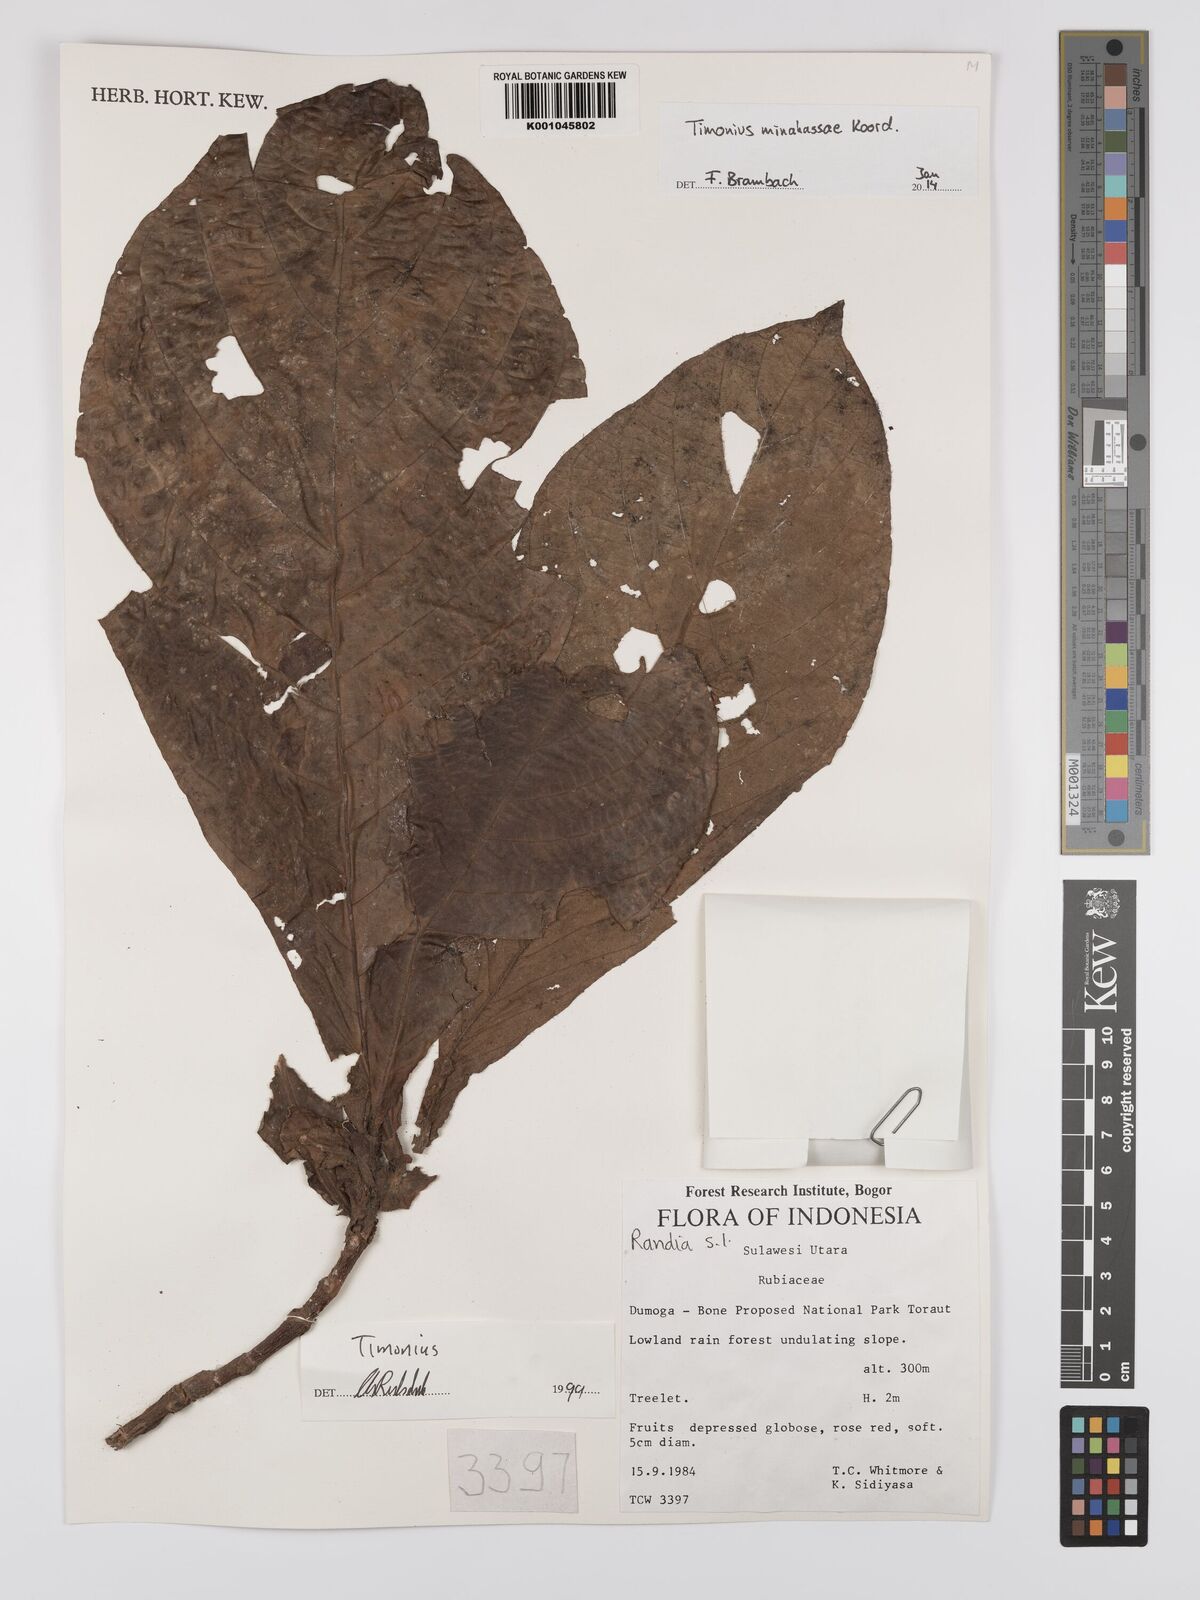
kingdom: Plantae
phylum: Tracheophyta
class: Magnoliopsida
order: Gentianales
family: Rubiaceae
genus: Timonius
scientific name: Timonius minahassae
